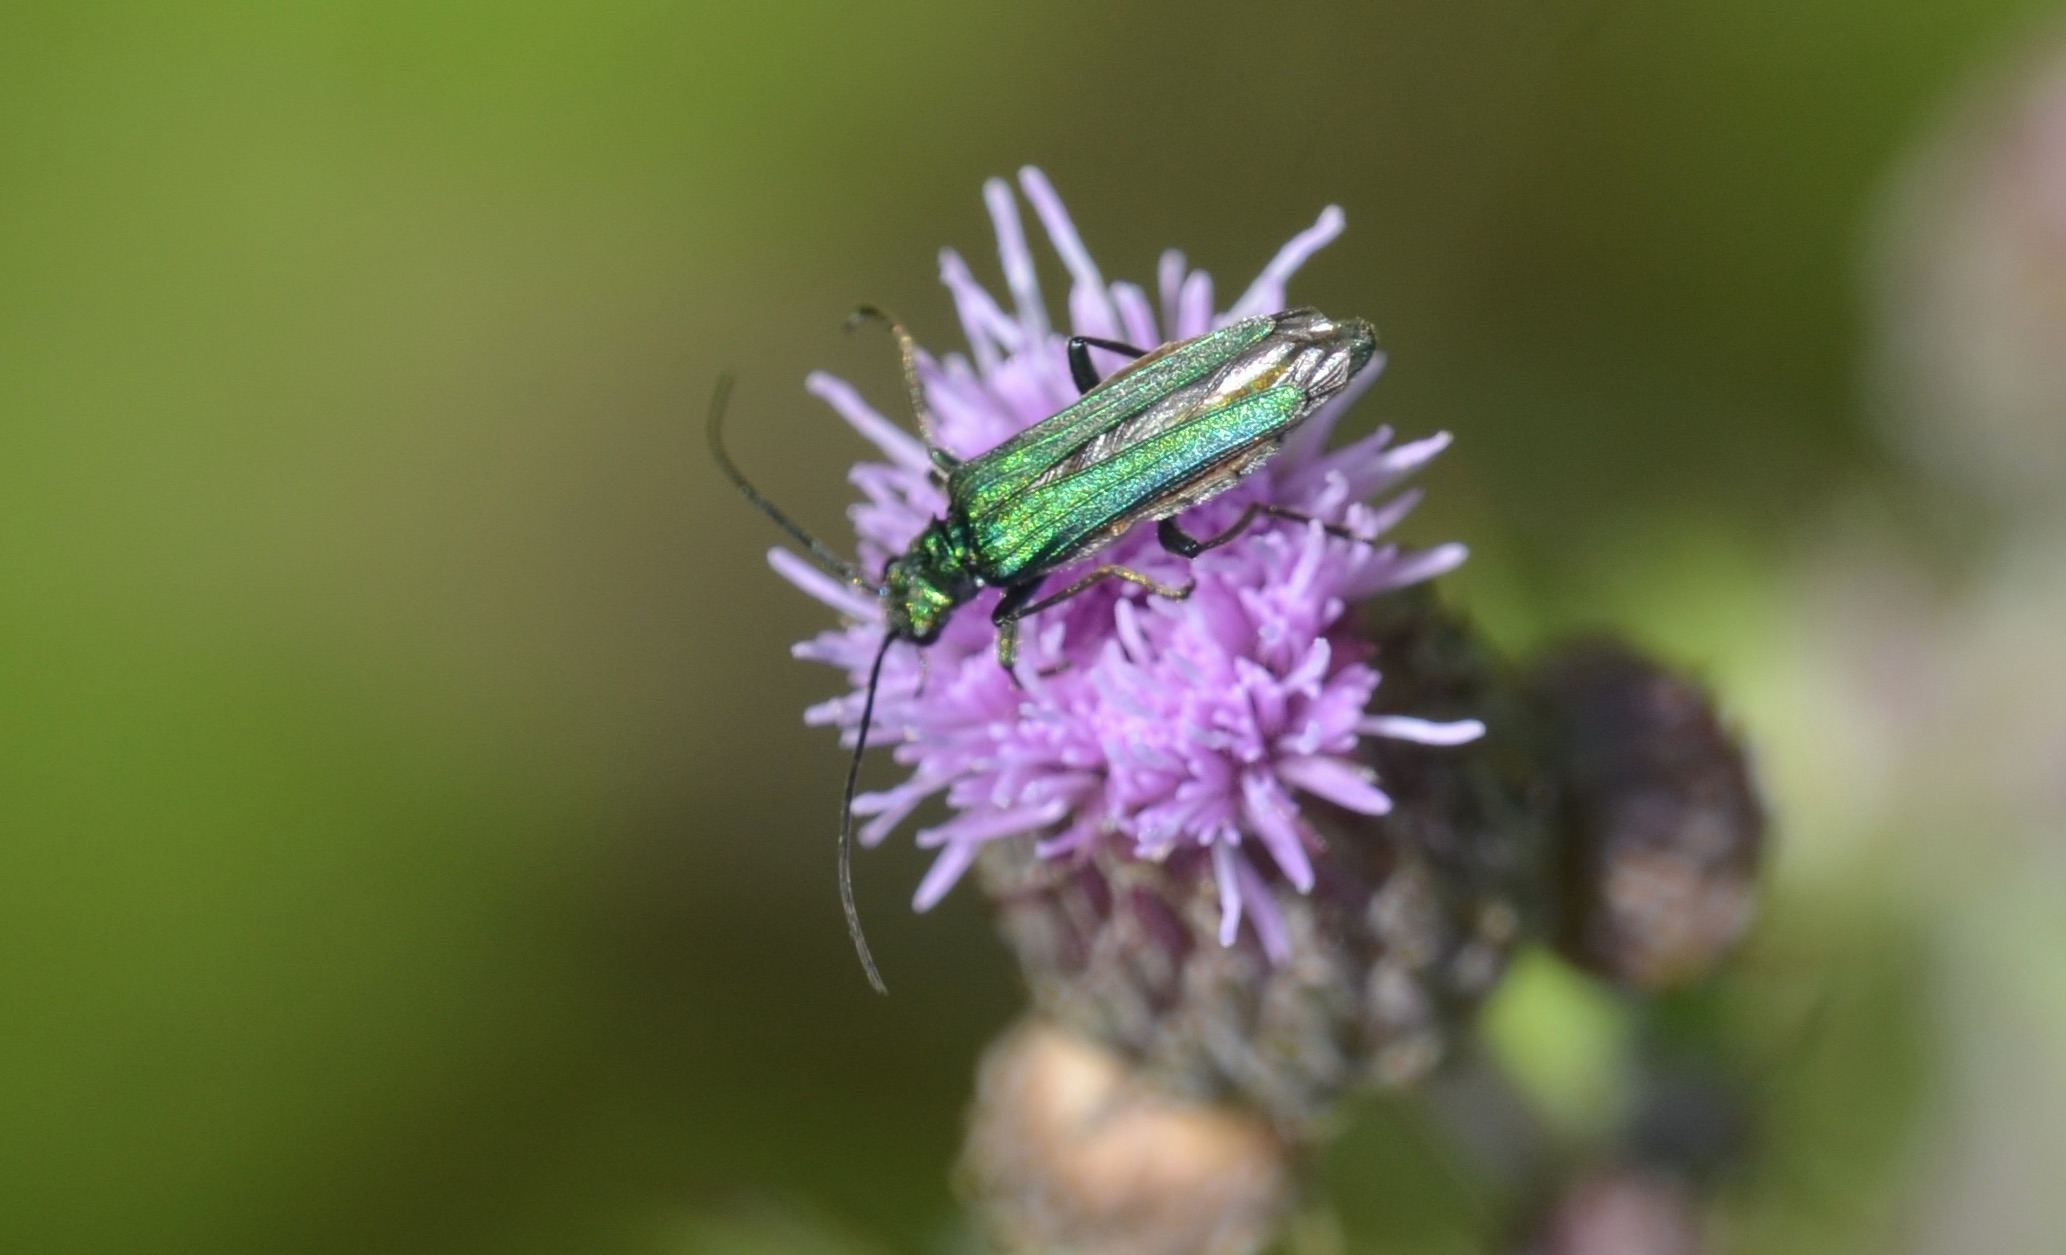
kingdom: Animalia
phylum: Arthropoda
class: Insecta
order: Coleoptera
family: Oedemeridae
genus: Oedemera
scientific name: Oedemera nobilis
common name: Tyklårssolbille
